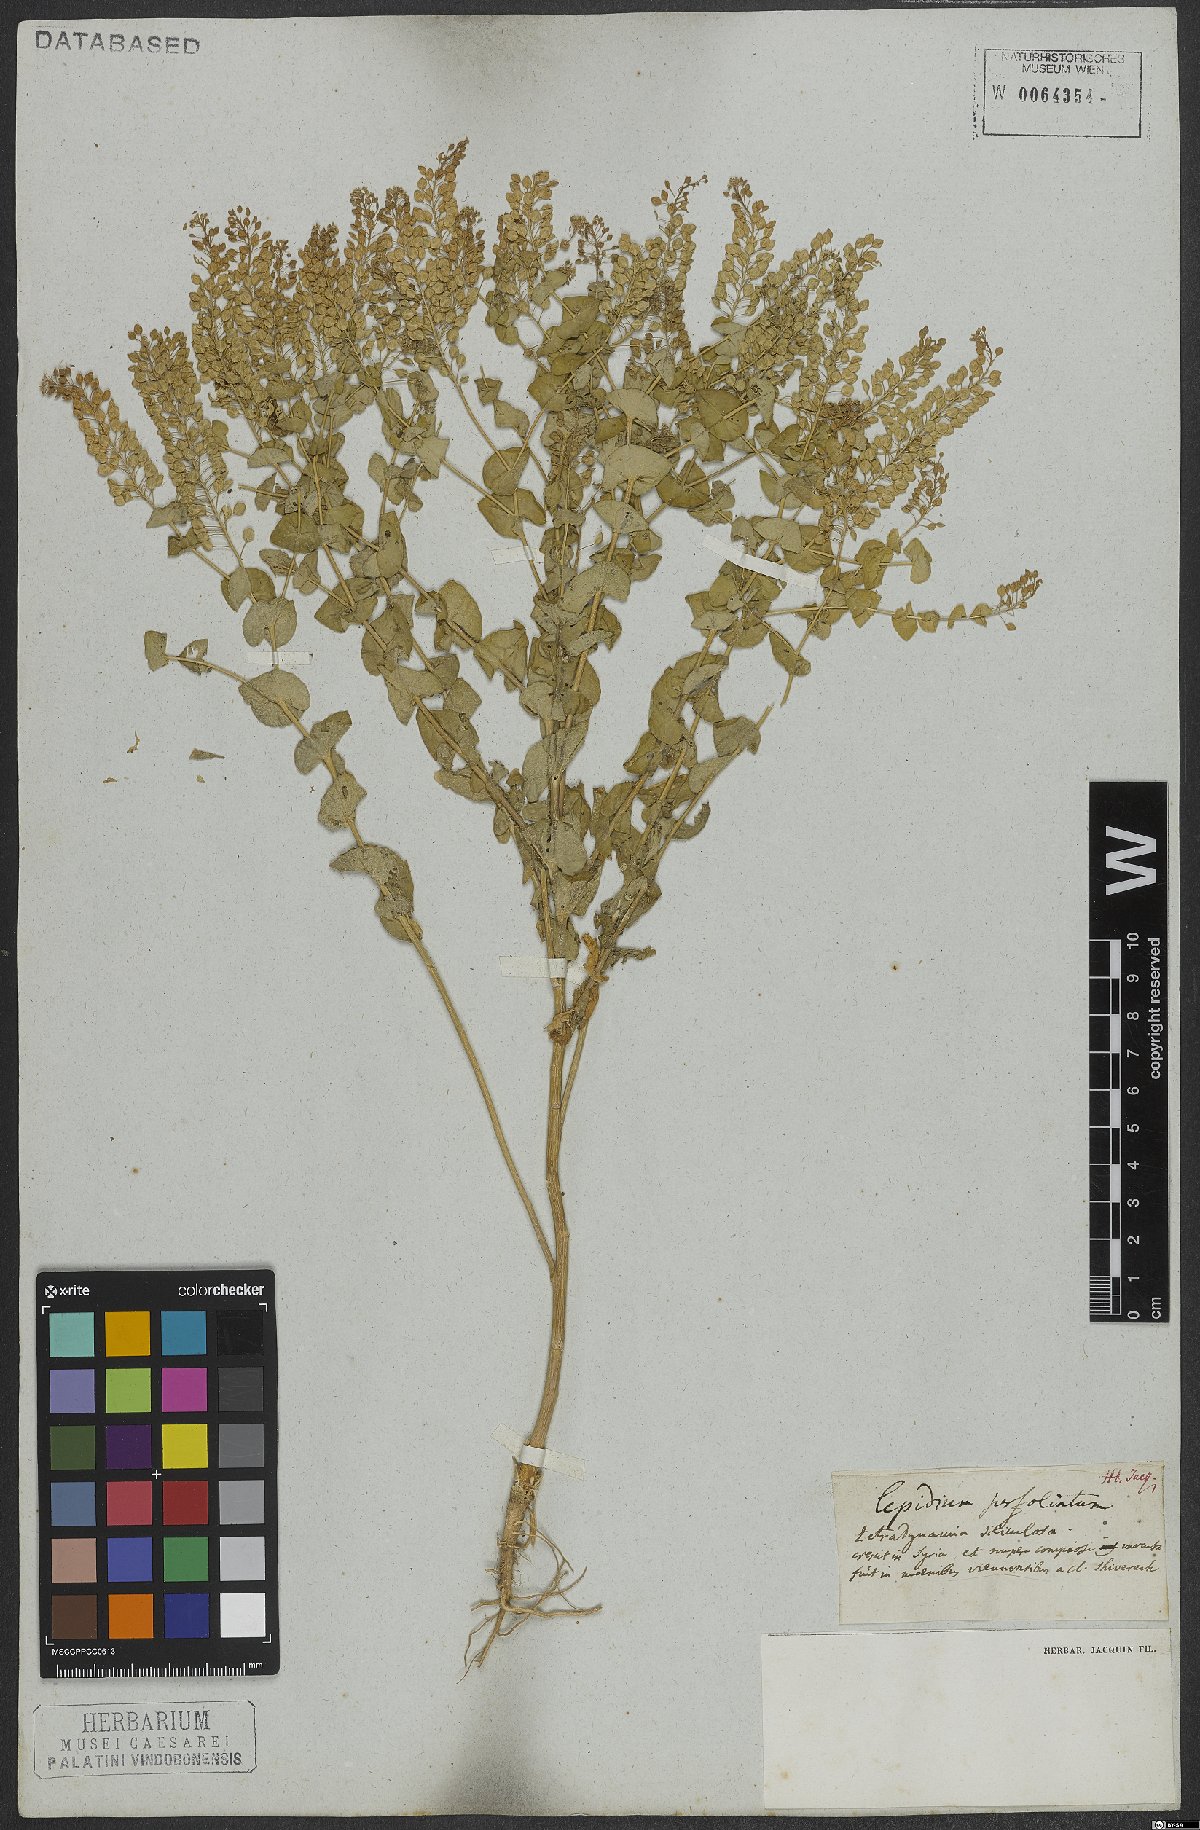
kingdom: Plantae
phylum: Tracheophyta
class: Magnoliopsida
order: Brassicales
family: Brassicaceae
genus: Lepidium
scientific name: Lepidium perfoliatum
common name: Perfoliate pepperwort
